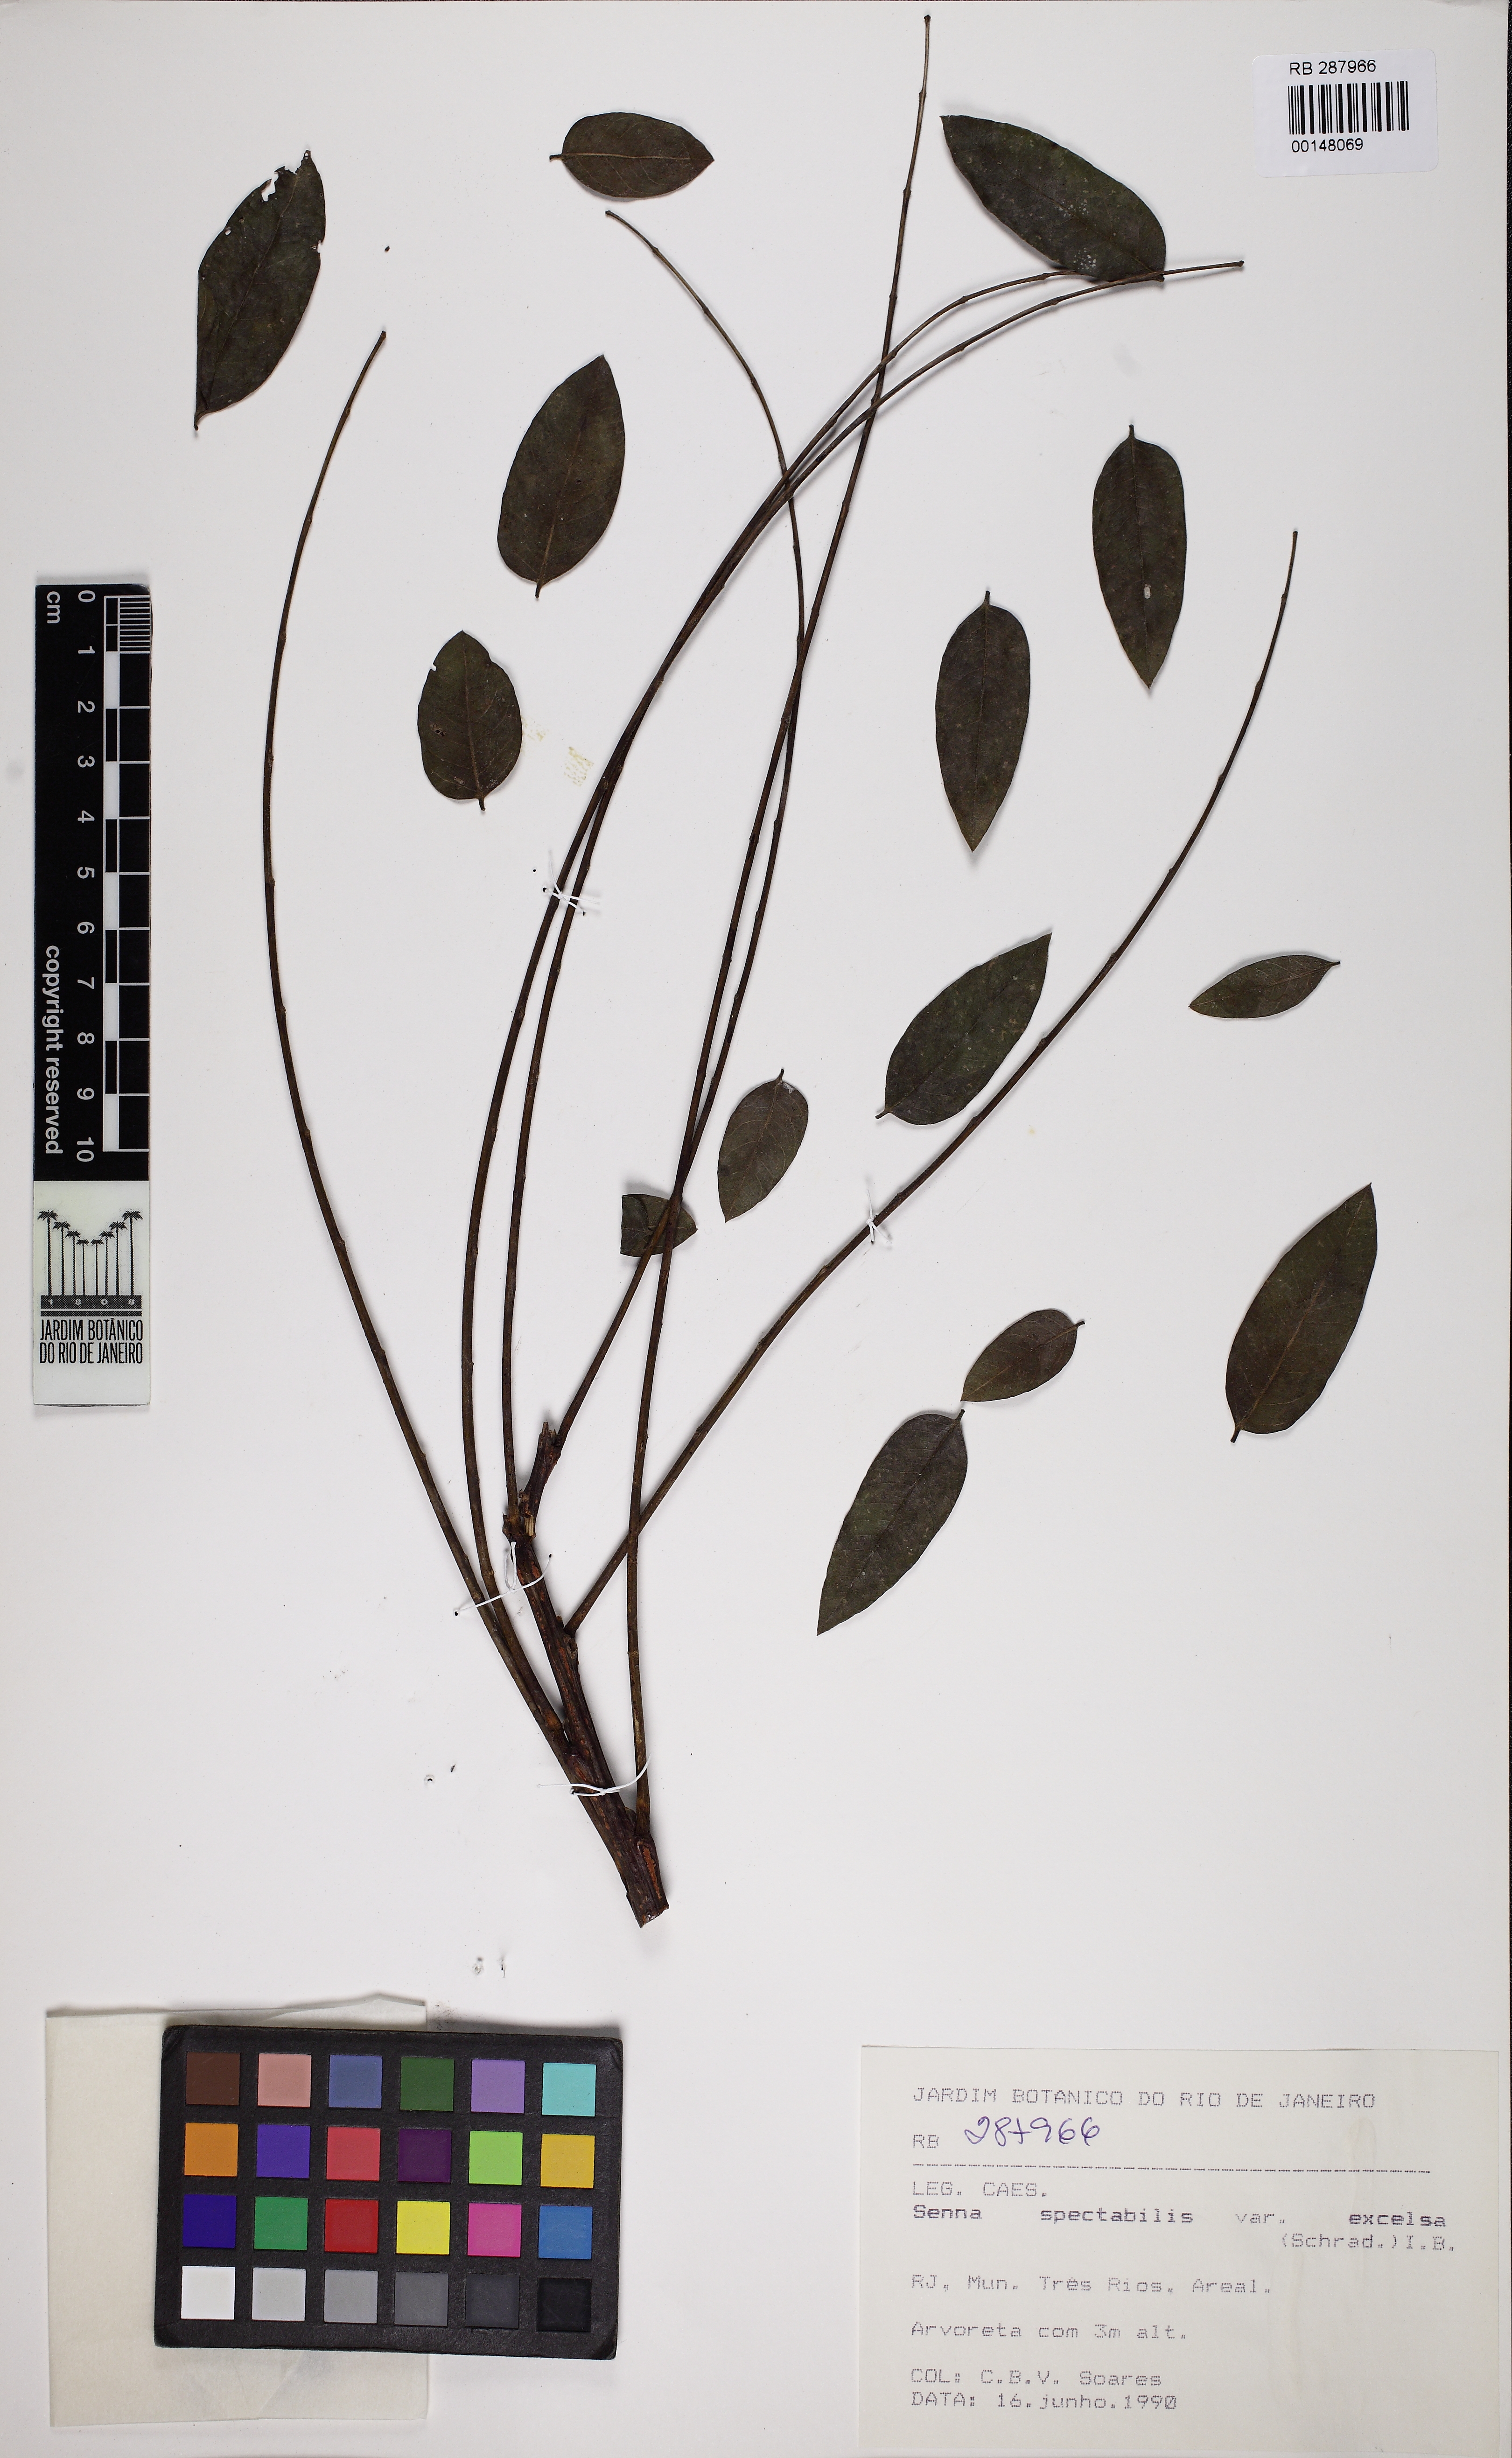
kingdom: Plantae
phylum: Tracheophyta
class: Magnoliopsida
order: Fabales
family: Fabaceae
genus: Senna
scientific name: Senna spectabilis
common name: Casia amarilla
